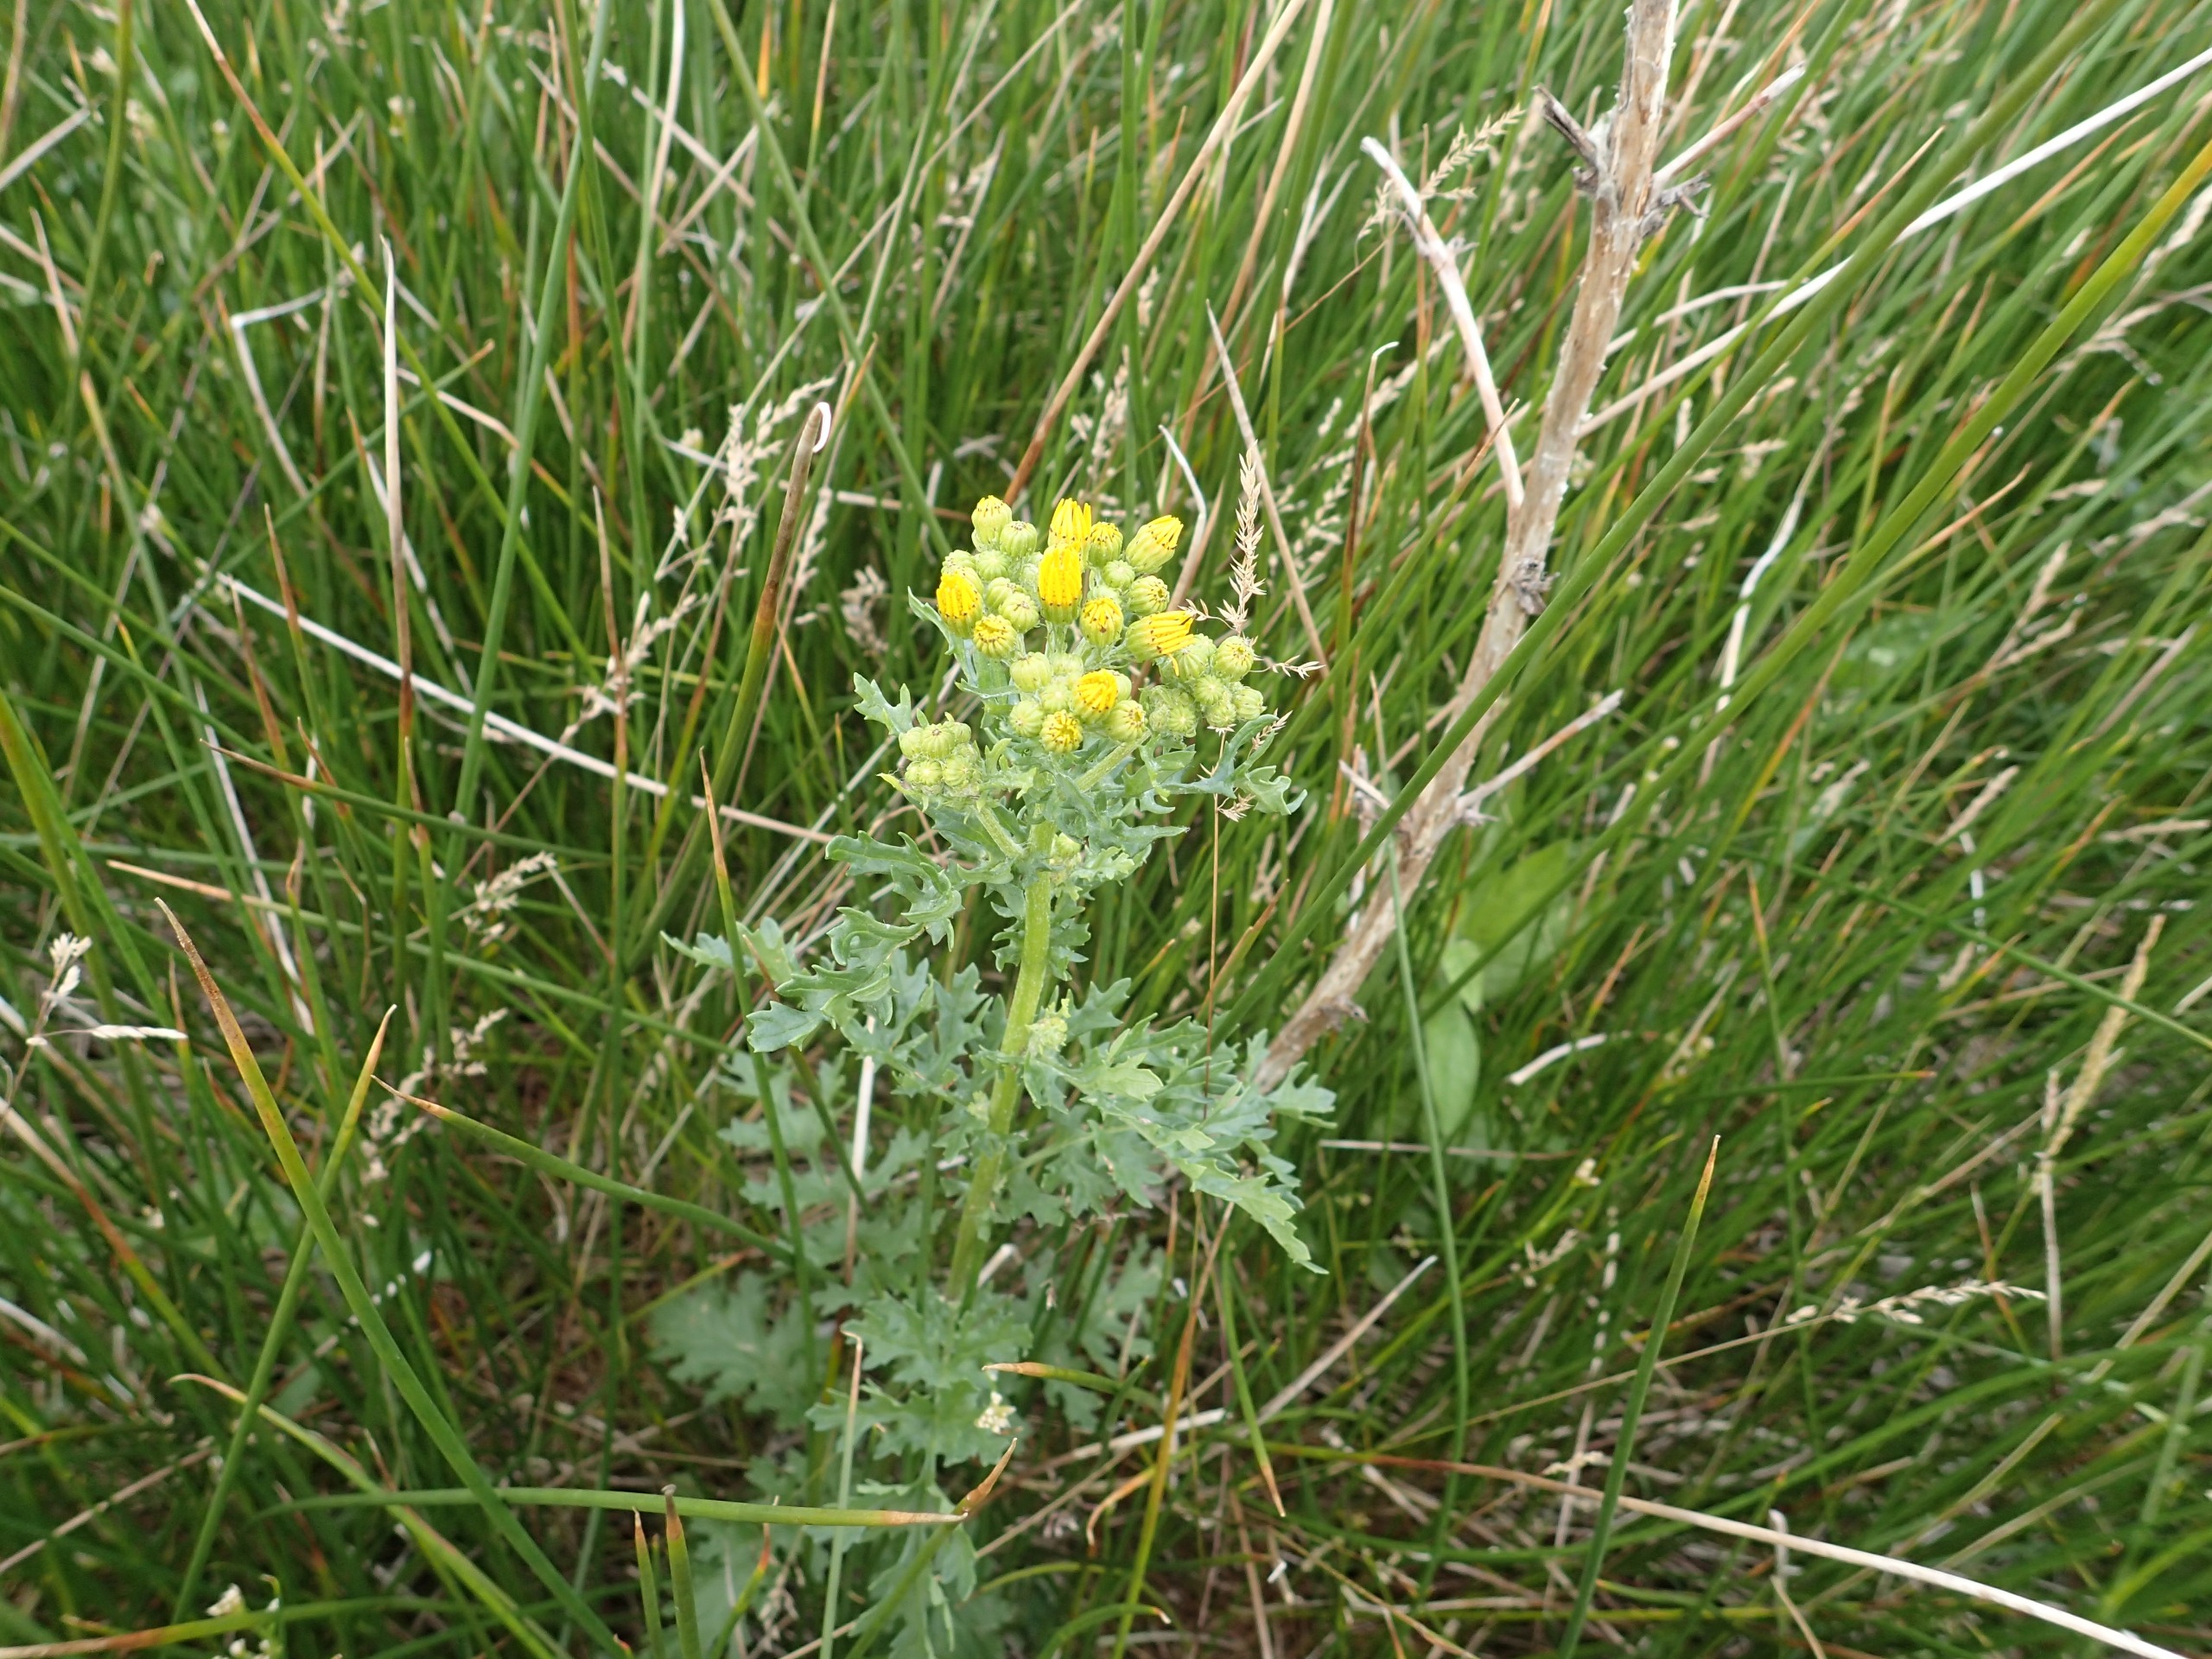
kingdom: Plantae
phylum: Tracheophyta
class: Magnoliopsida
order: Asterales
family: Asteraceae
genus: Jacobaea
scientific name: Jacobaea vulgaris
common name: Eng-brandbæger
